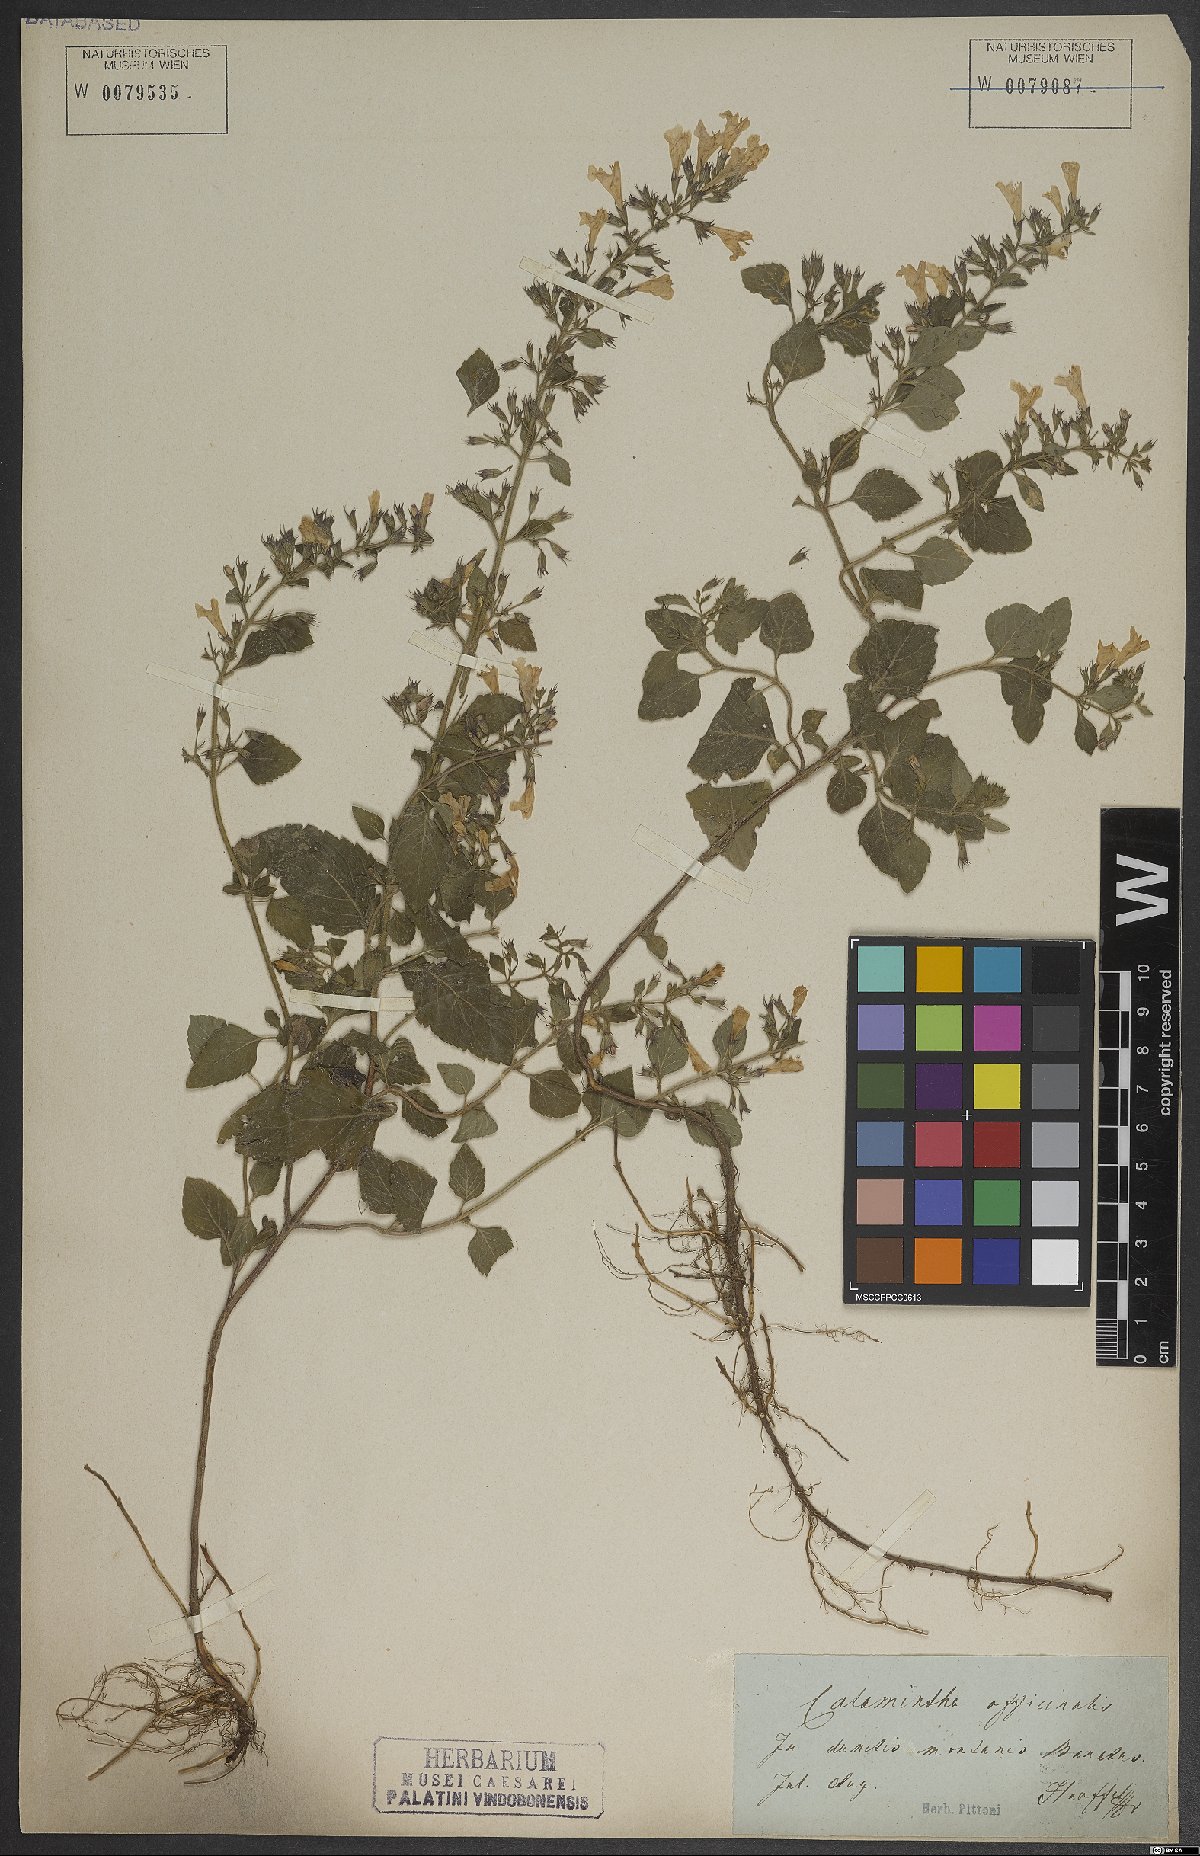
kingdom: Plantae
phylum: Tracheophyta
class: Magnoliopsida
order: Lamiales
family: Lamiaceae
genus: Clinopodium
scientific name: Clinopodium menthifolium
